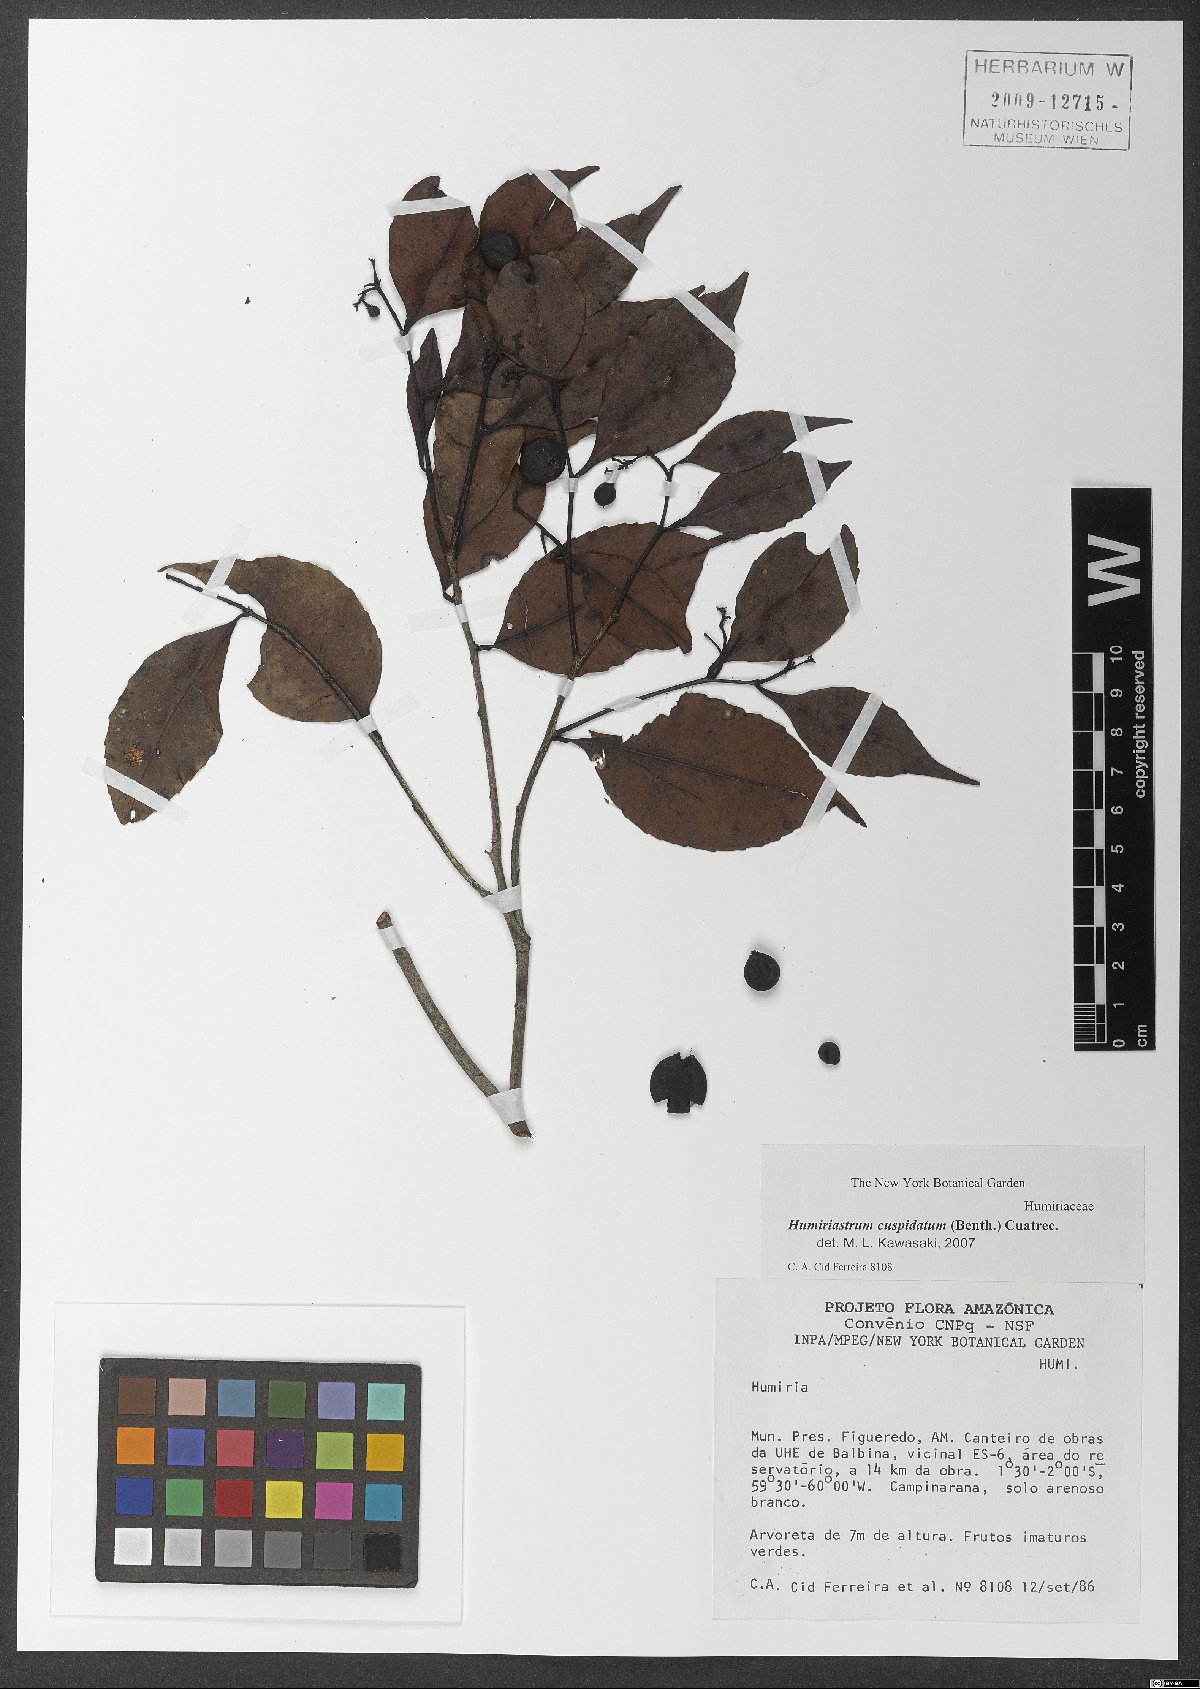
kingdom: Plantae
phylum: Tracheophyta
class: Magnoliopsida
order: Malpighiales
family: Humiriaceae
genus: Humiriastrum
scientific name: Humiriastrum cuspidatum
